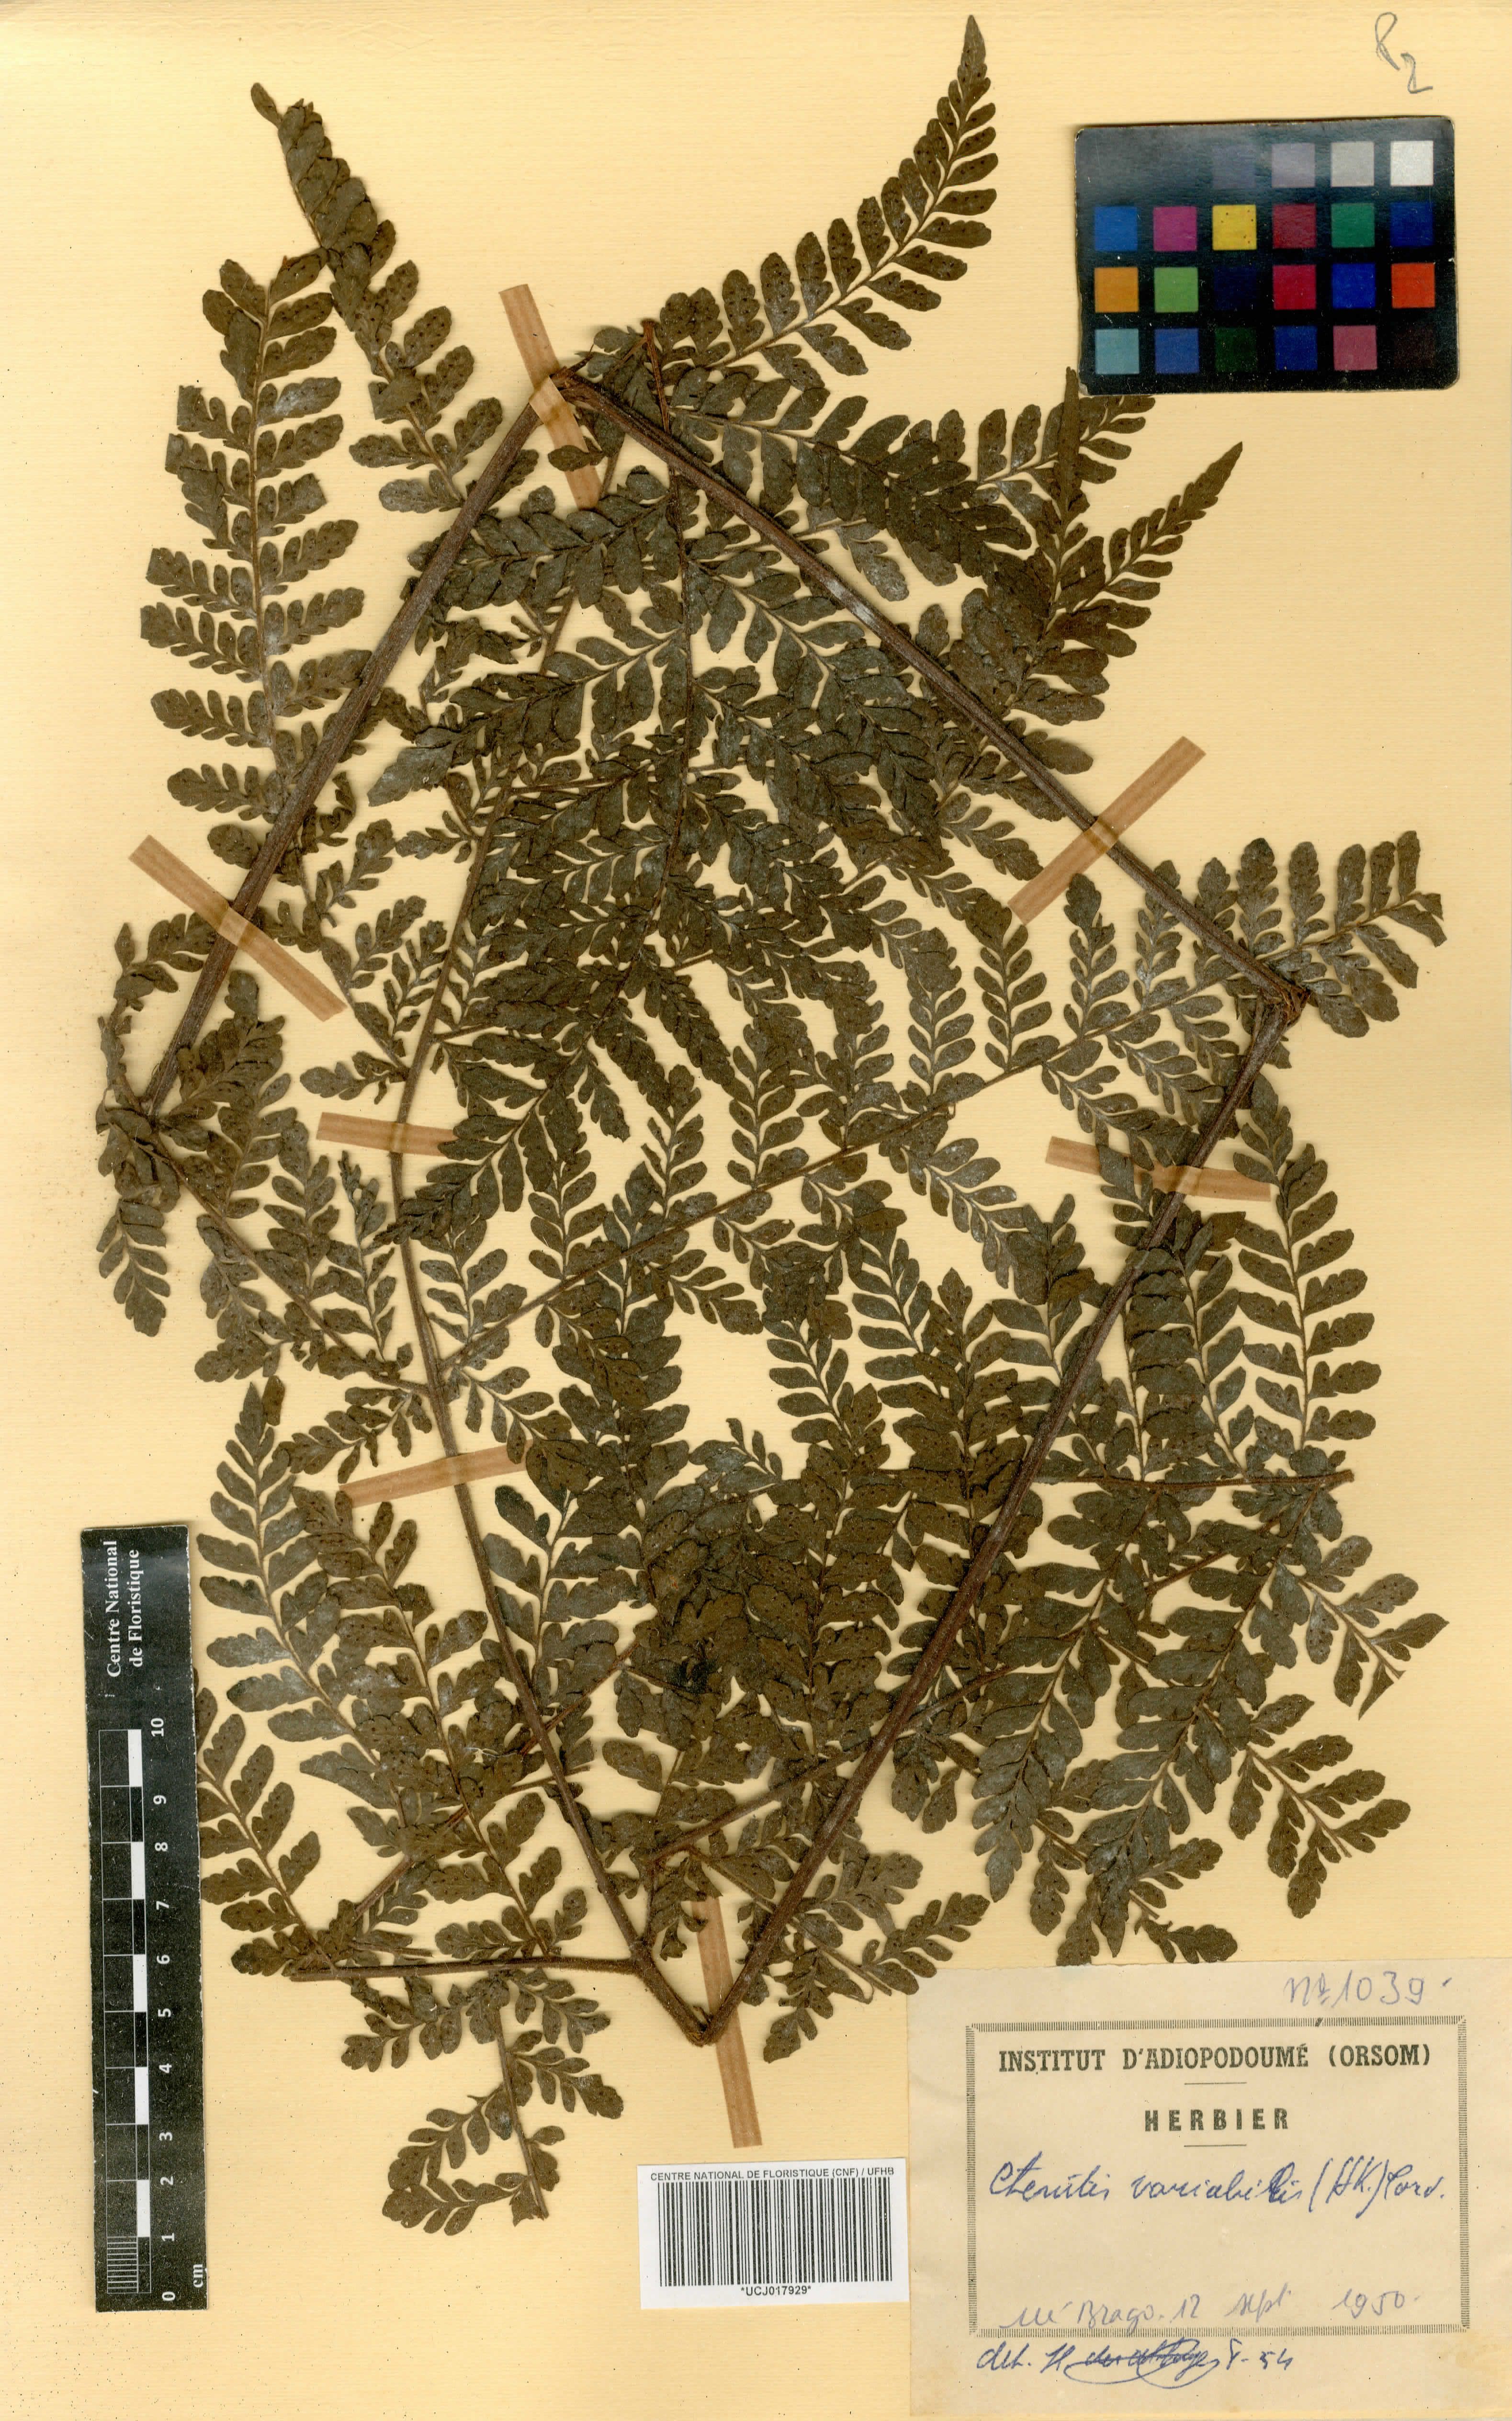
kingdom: Plantae
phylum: Tracheophyta
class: Polypodiopsida
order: Polypodiales
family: Tectariaceae
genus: Triplophyllum
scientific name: Triplophyllum pilosissimum
